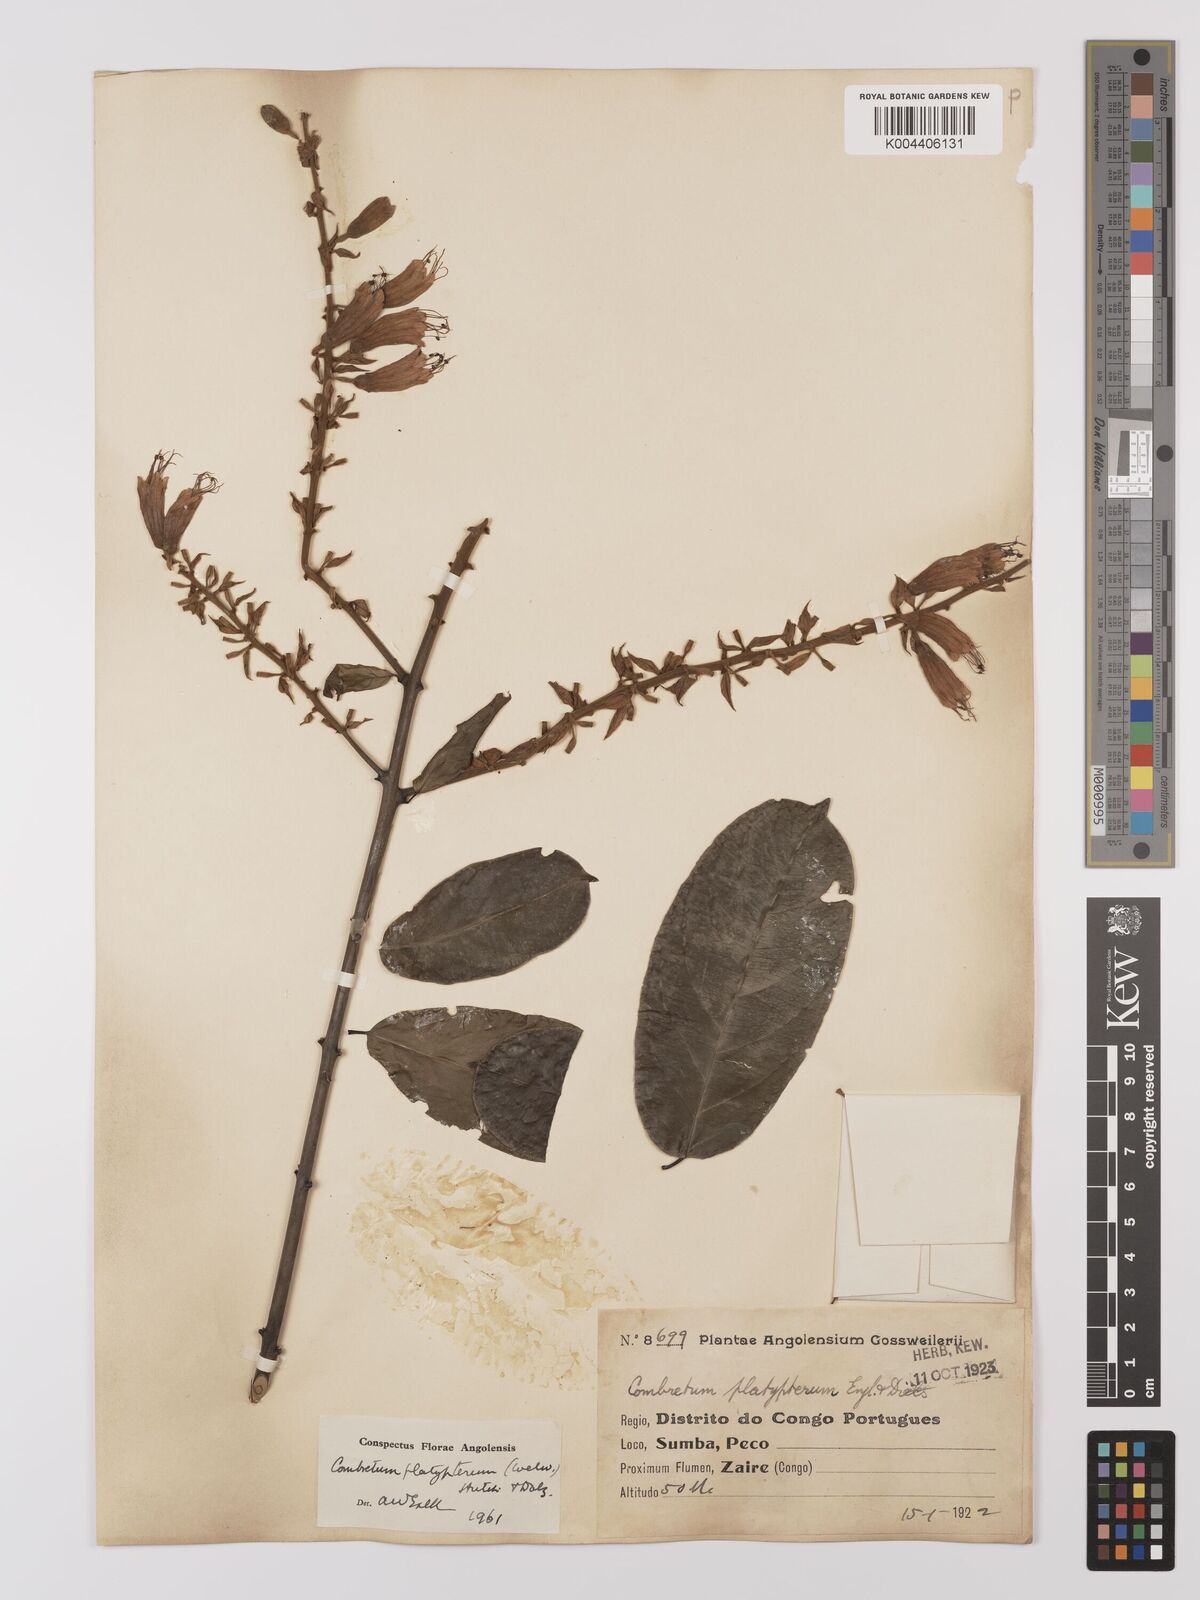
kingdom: Plantae
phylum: Tracheophyta
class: Magnoliopsida
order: Myrtales
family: Combretaceae
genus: Combretum
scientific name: Combretum platypterum
